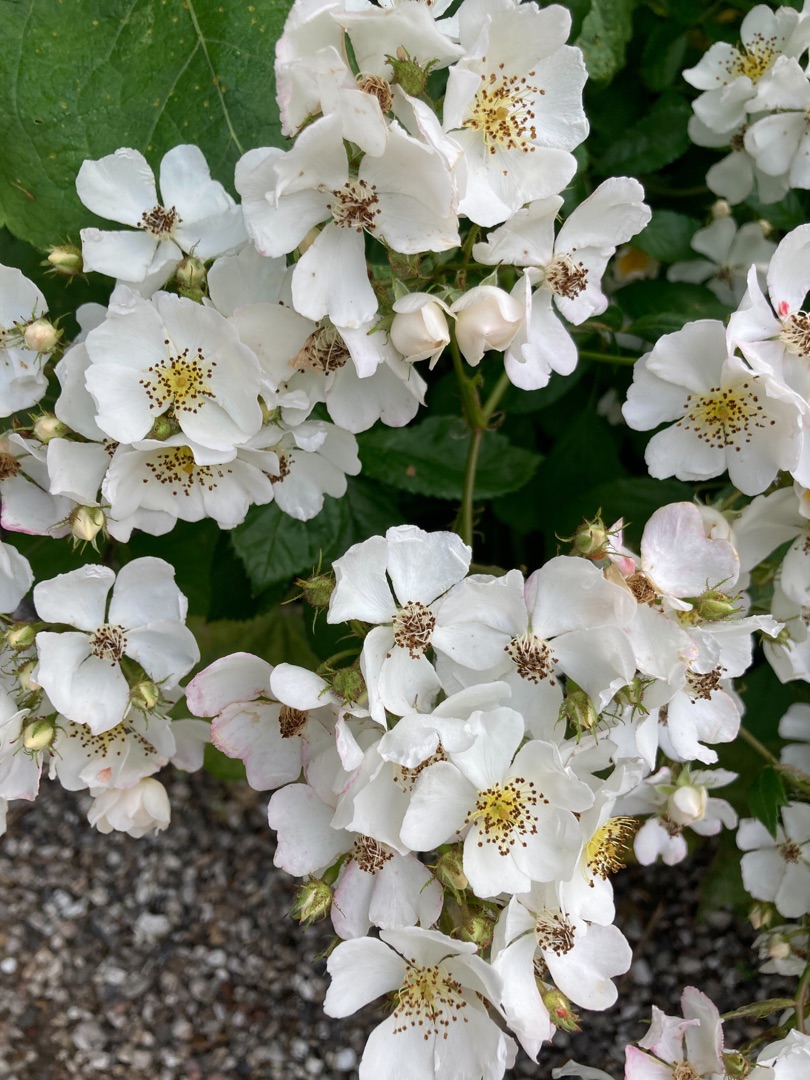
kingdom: Plantae
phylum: Tracheophyta
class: Magnoliopsida
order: Rosales
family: Rosaceae
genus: Rosa
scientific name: Rosa multiflora
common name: Mangeblomstret rose
